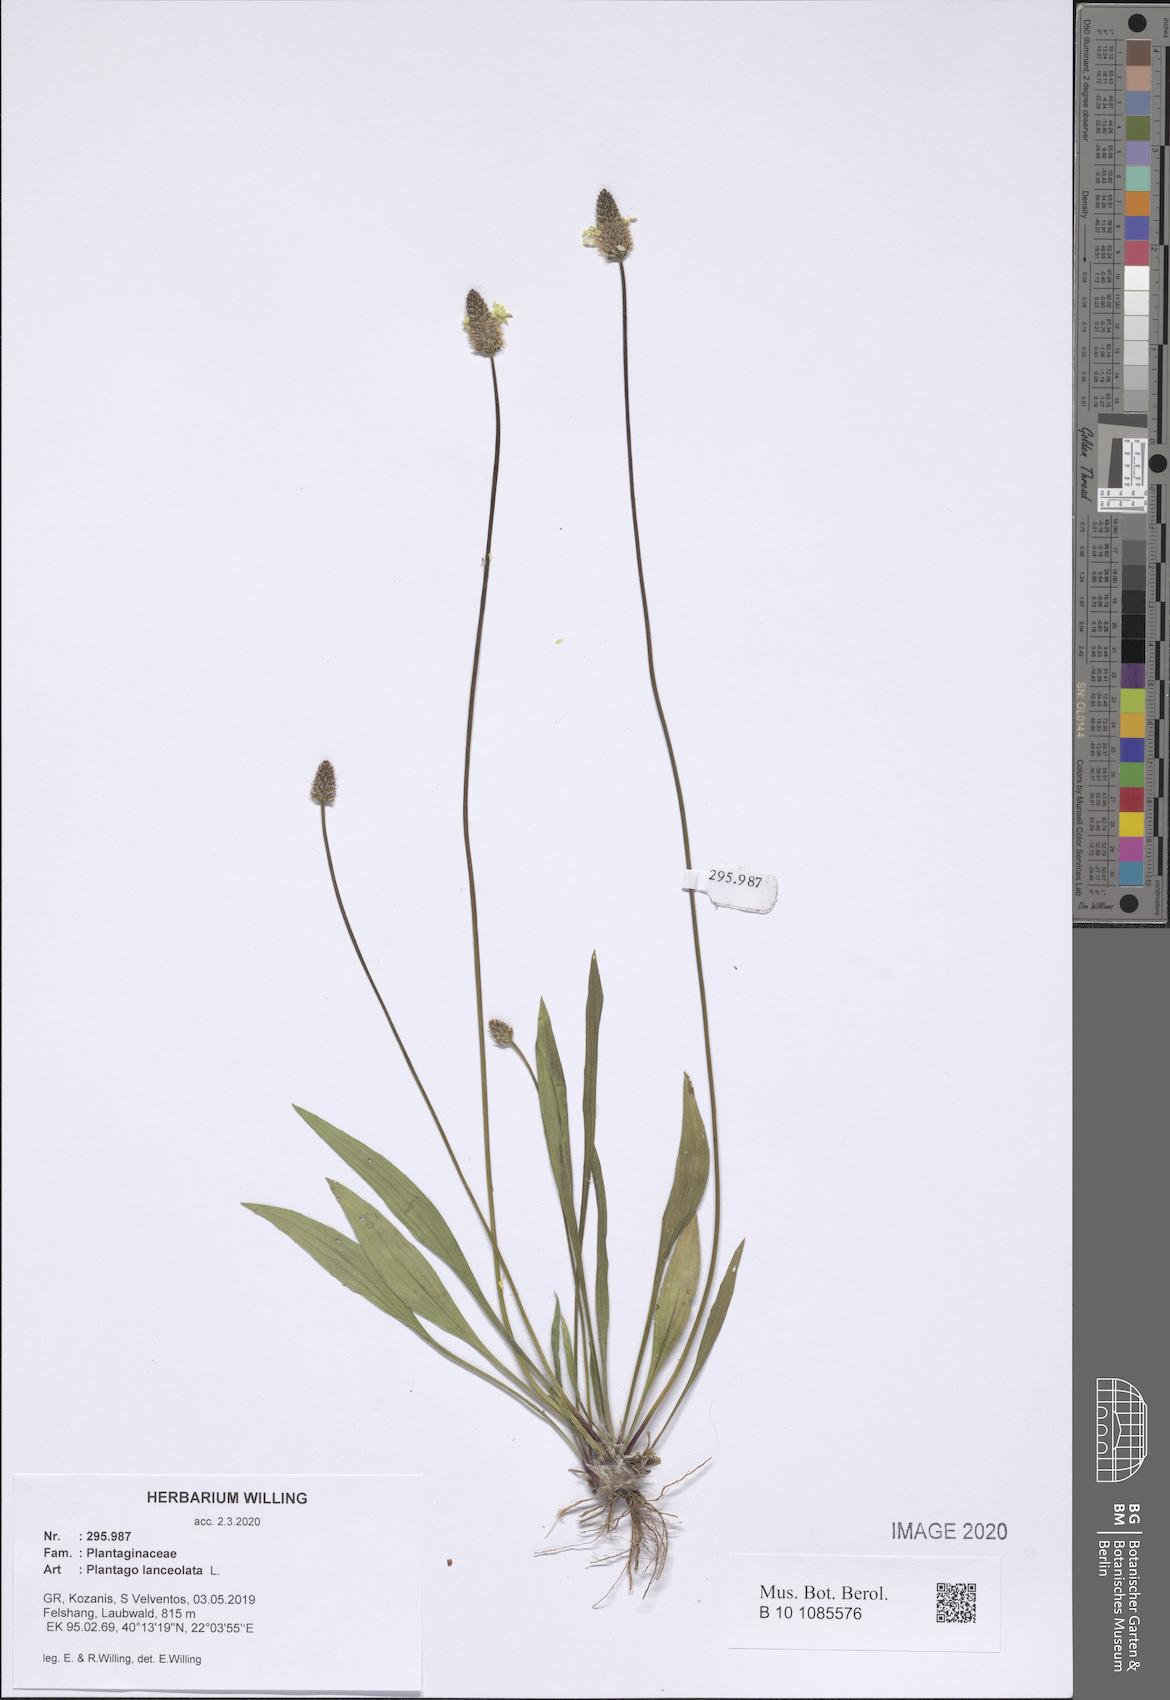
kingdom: Plantae
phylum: Tracheophyta
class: Magnoliopsida
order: Lamiales
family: Plantaginaceae
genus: Plantago
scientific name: Plantago lanceolata
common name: Ribwort plantain
